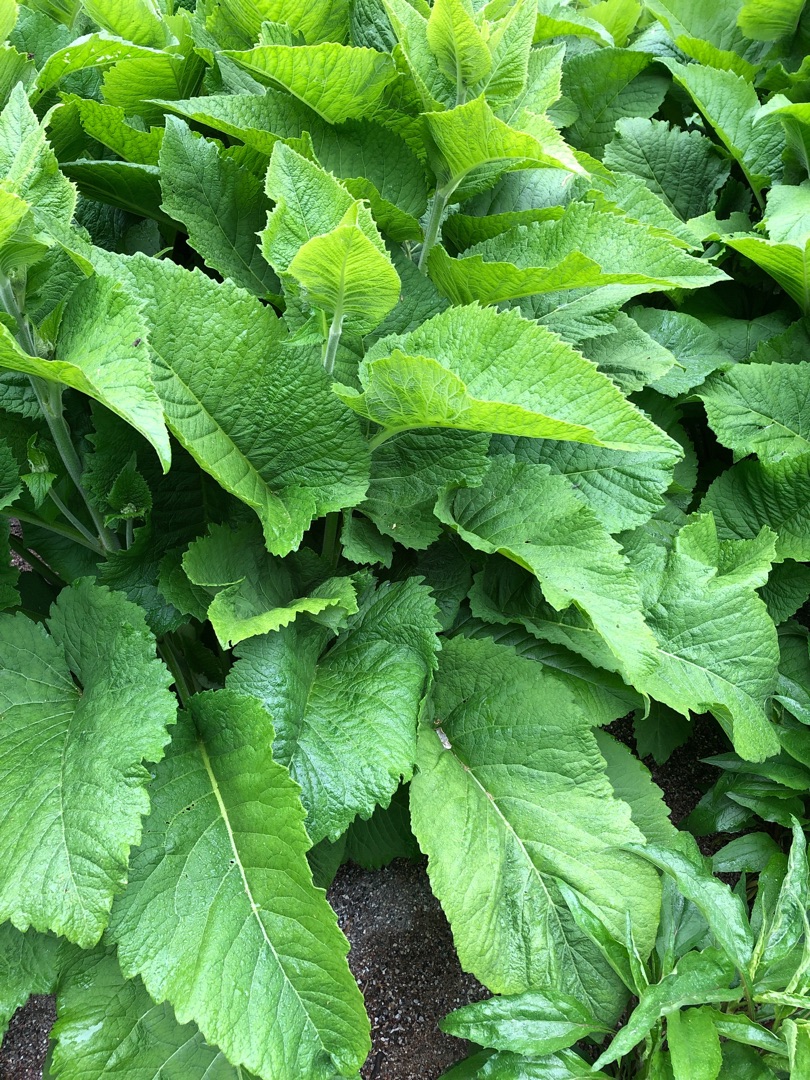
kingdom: Plantae
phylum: Tracheophyta
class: Magnoliopsida
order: Asterales
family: Asteraceae
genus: Telekia
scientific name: Telekia speciosa
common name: Tusindstråle
